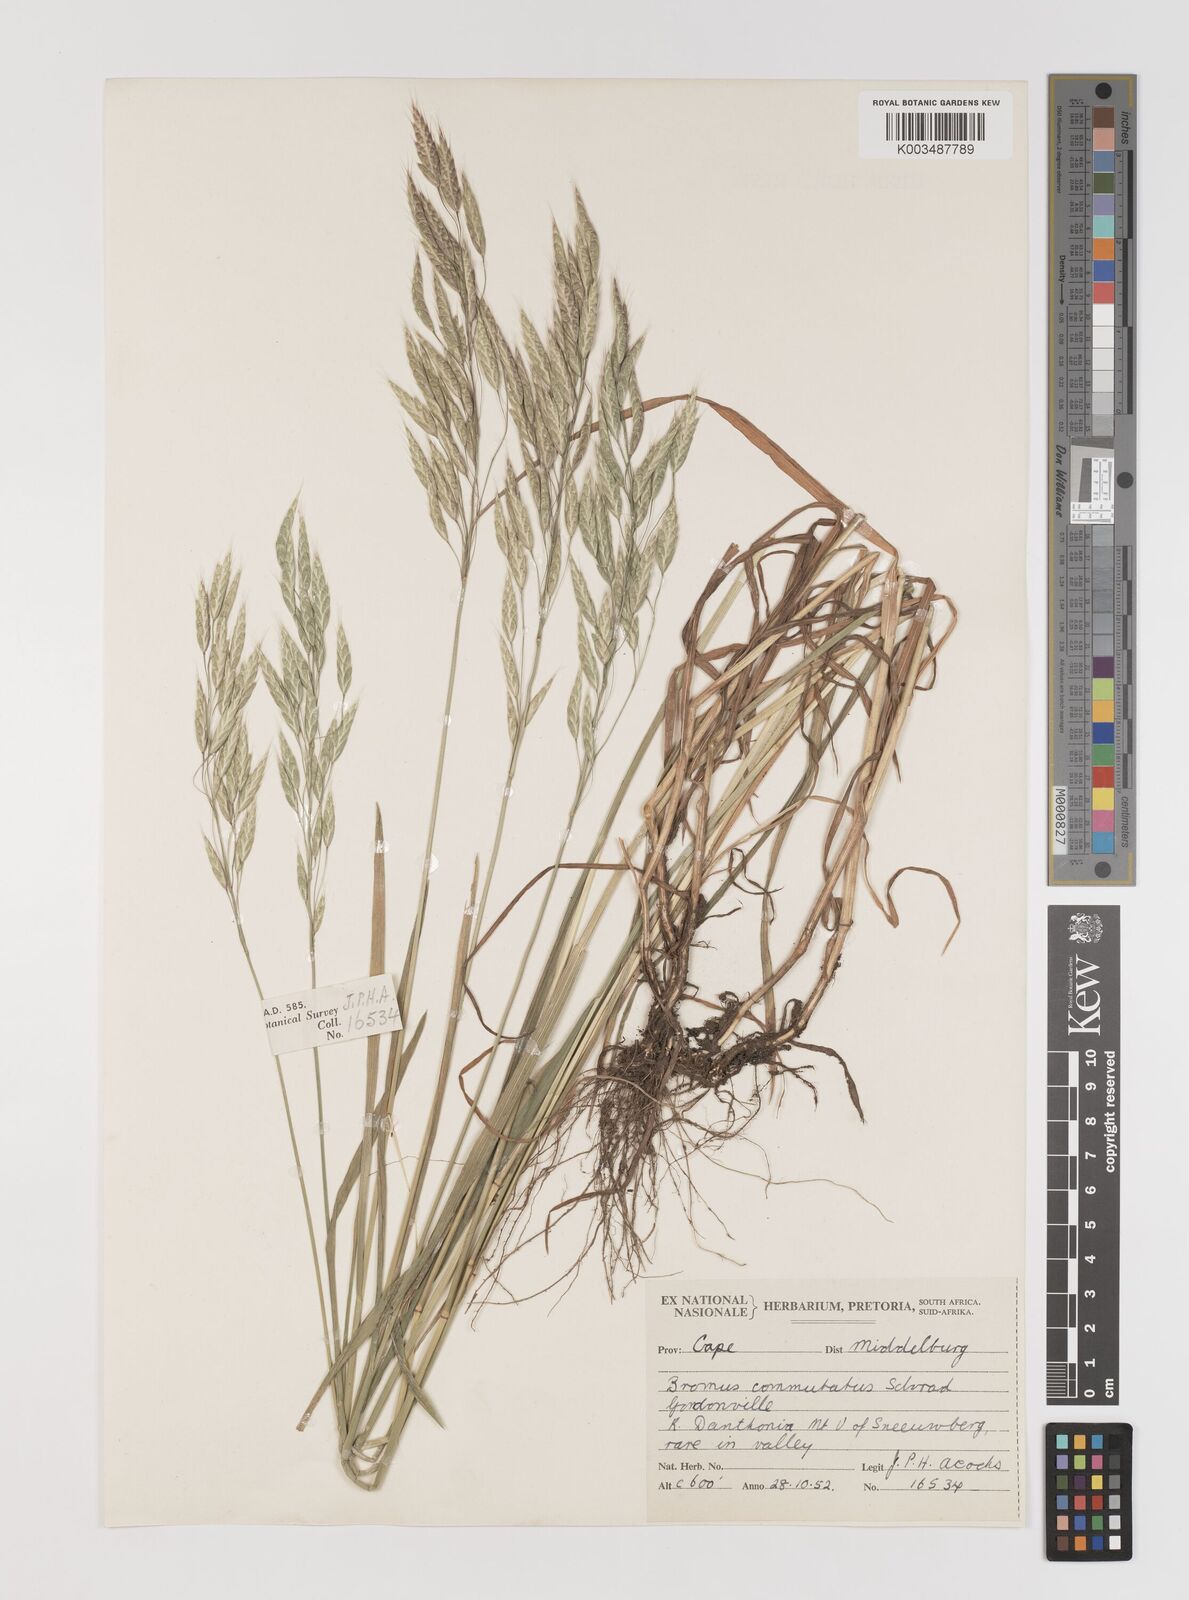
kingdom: Plantae
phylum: Tracheophyta
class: Liliopsida
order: Poales
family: Poaceae
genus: Bromus
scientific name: Bromus racemosus
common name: Bald brome
